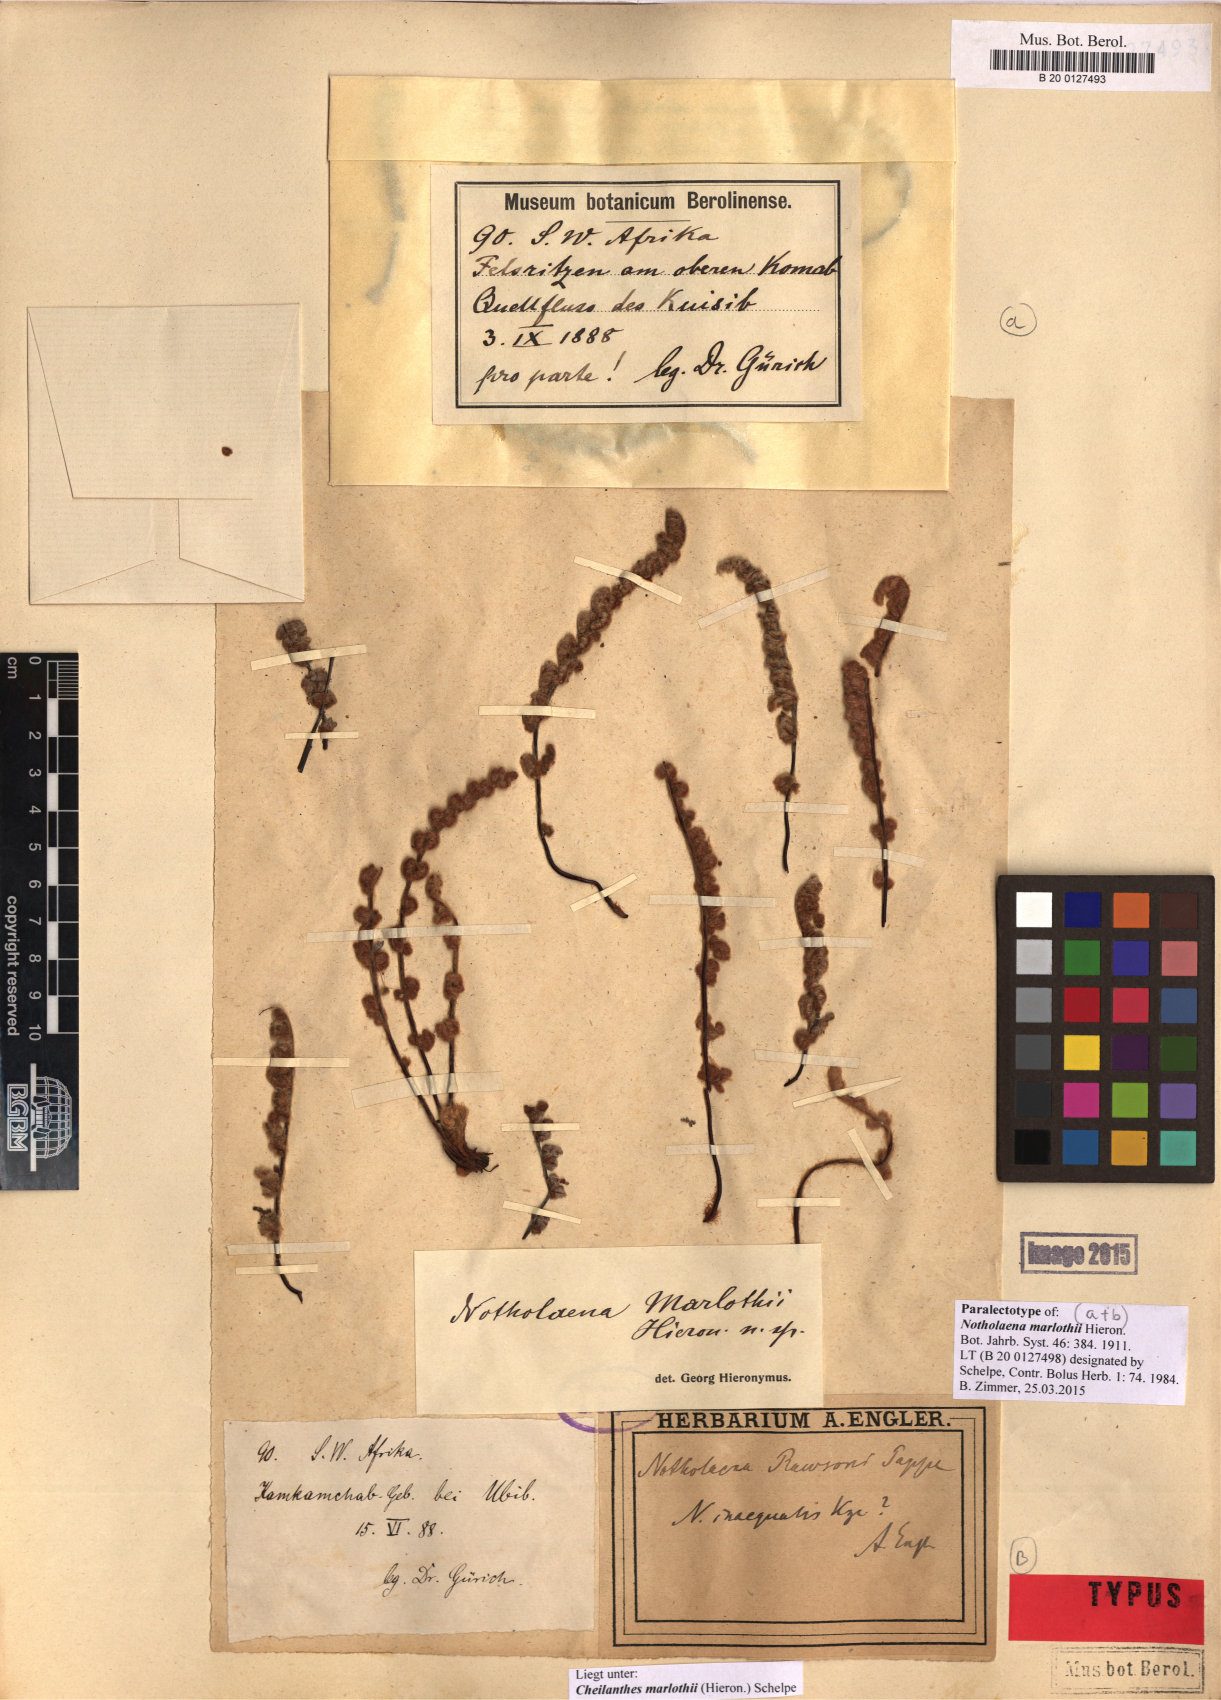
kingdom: Plantae
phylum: Tracheophyta
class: Polypodiopsida
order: Polypodiales
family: Pteridaceae
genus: Cheilanthes
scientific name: Cheilanthes marlothii
